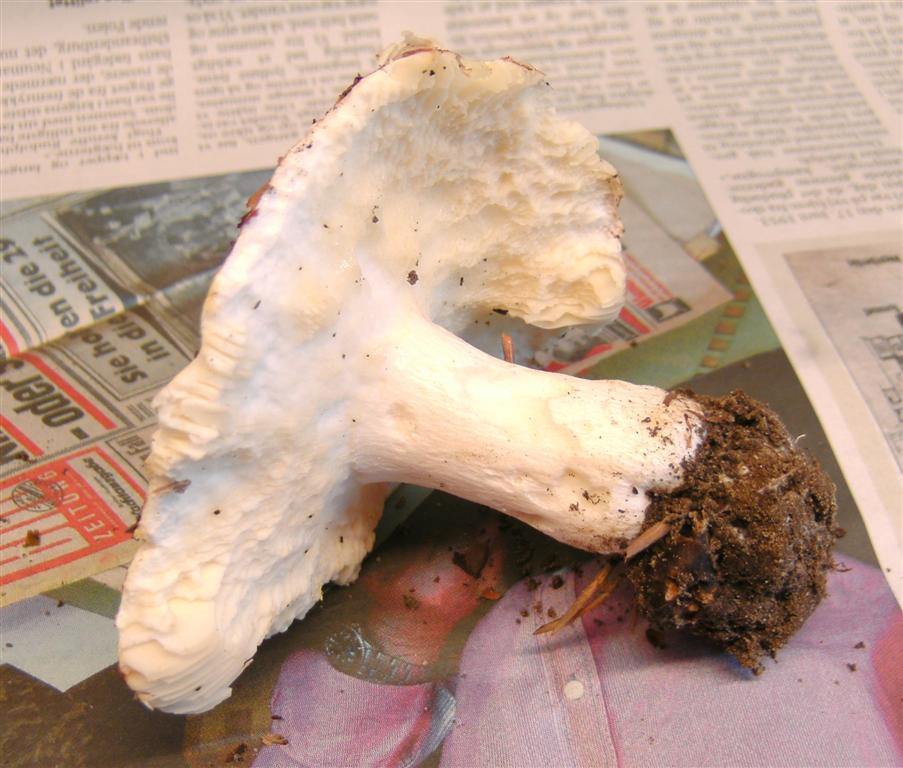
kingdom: Fungi
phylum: Basidiomycota
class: Agaricomycetes
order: Russulales
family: Russulaceae
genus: Russula
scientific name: Russula
